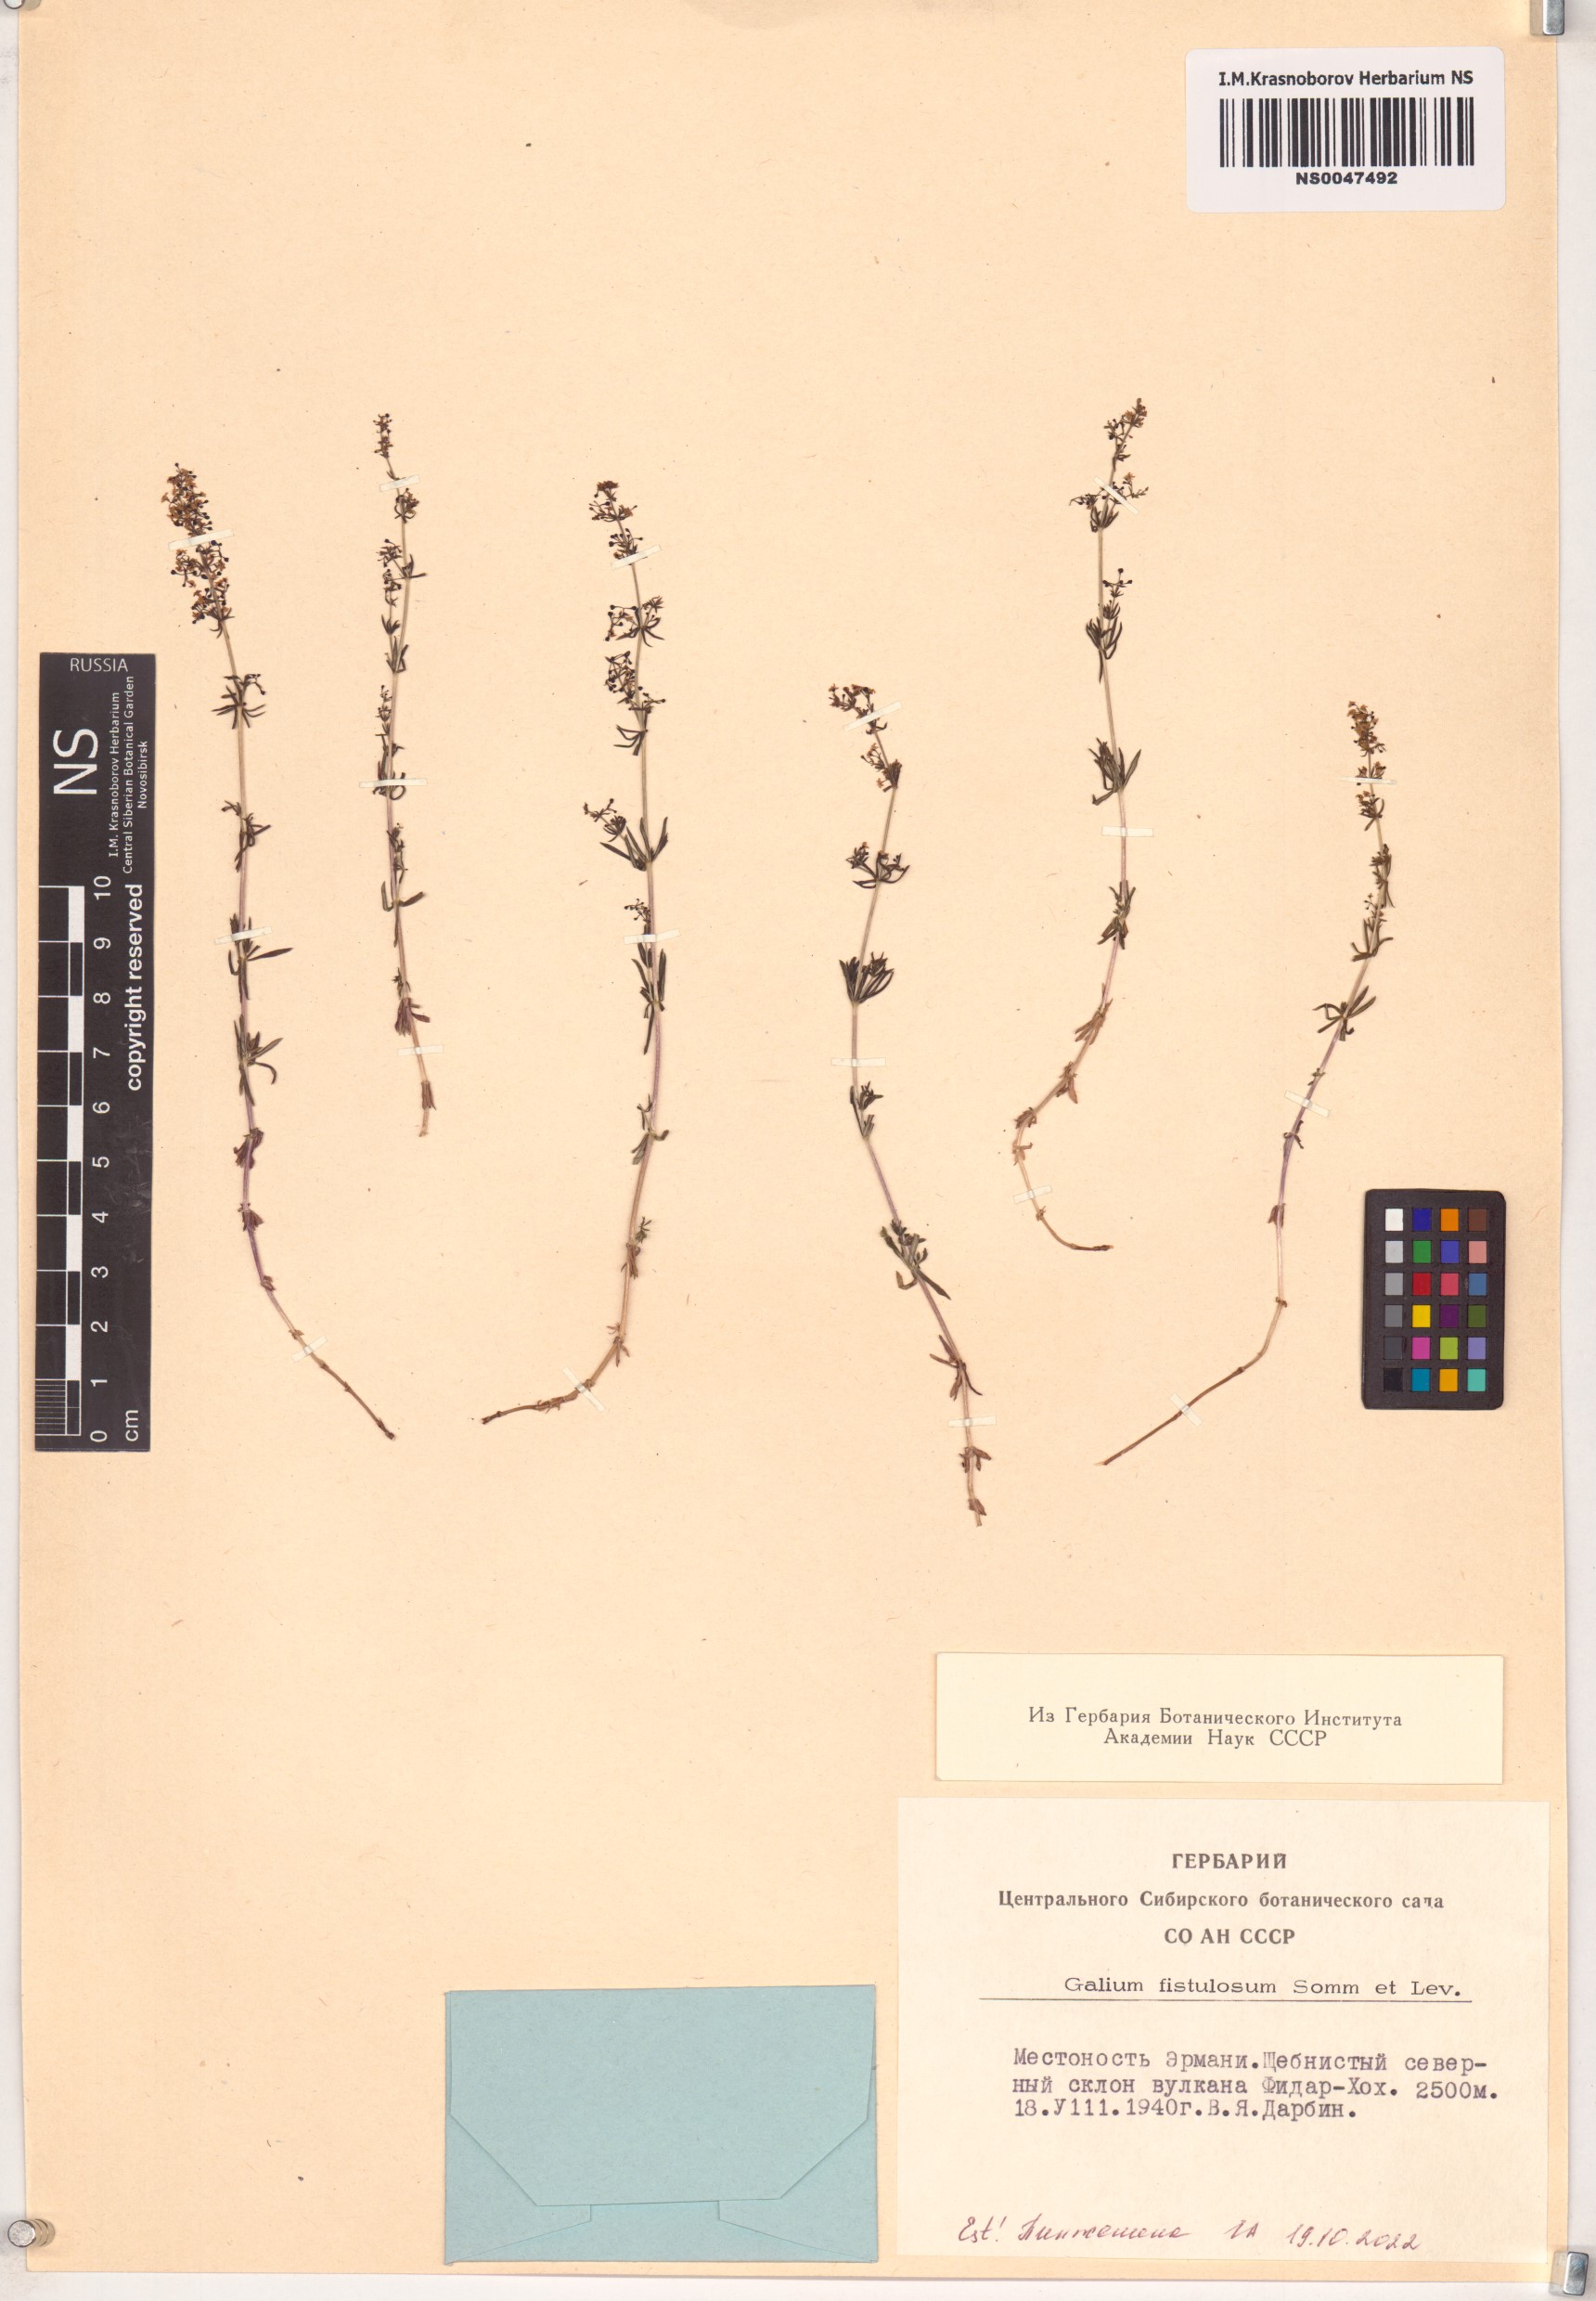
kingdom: Plantae
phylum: Tracheophyta
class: Magnoliopsida
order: Gentianales
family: Rubiaceae
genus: Galium
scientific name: Galium fistulosum
